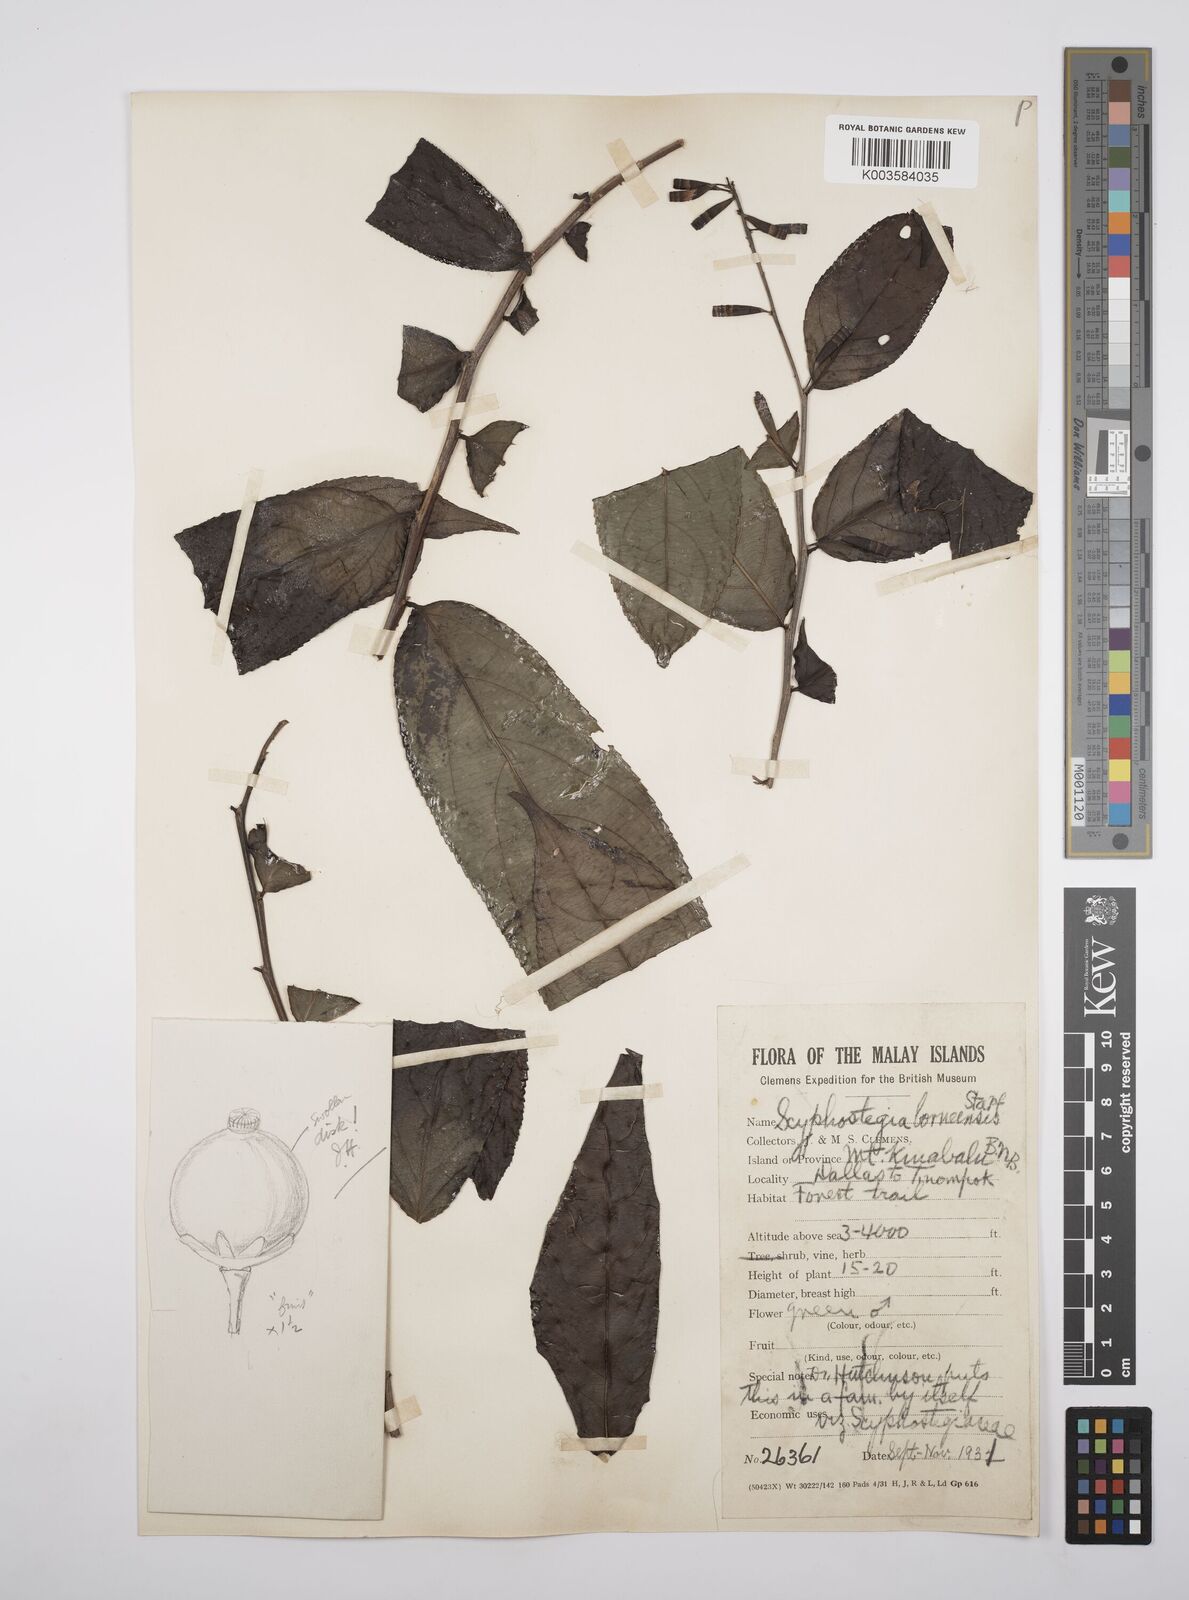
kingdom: Plantae
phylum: Tracheophyta
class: Magnoliopsida
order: Malpighiales
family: Salicaceae
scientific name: Salicaceae
